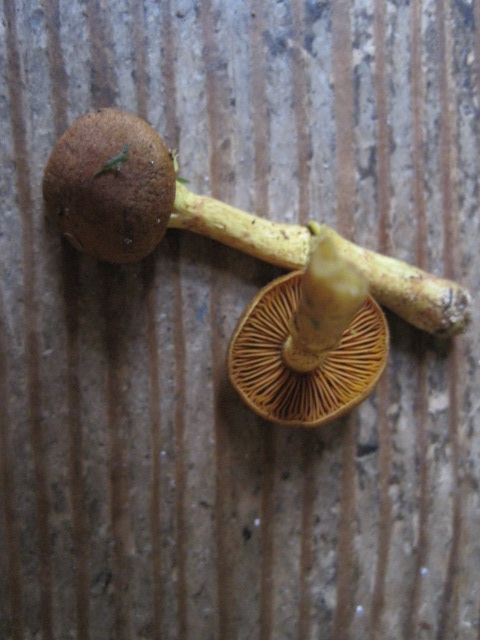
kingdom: Fungi
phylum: Basidiomycota
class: Agaricomycetes
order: Agaricales
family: Cortinariaceae
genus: Cortinarius
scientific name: Cortinarius
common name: gulbladet slørhat
